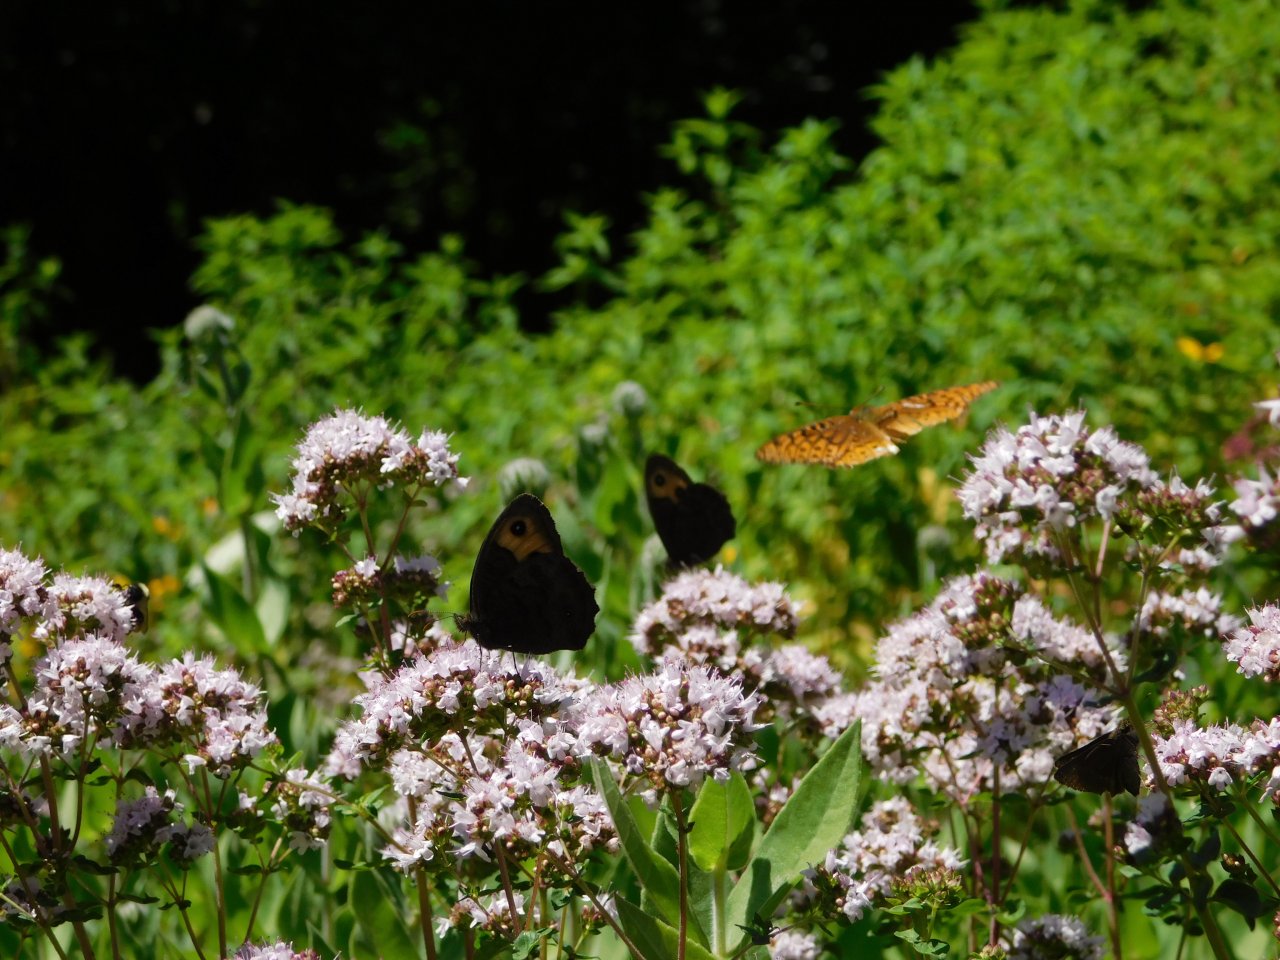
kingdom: Animalia
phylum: Arthropoda
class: Insecta
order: Lepidoptera
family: Nymphalidae
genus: Cercyonis
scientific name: Cercyonis pegala
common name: Common Wood-Nymph
